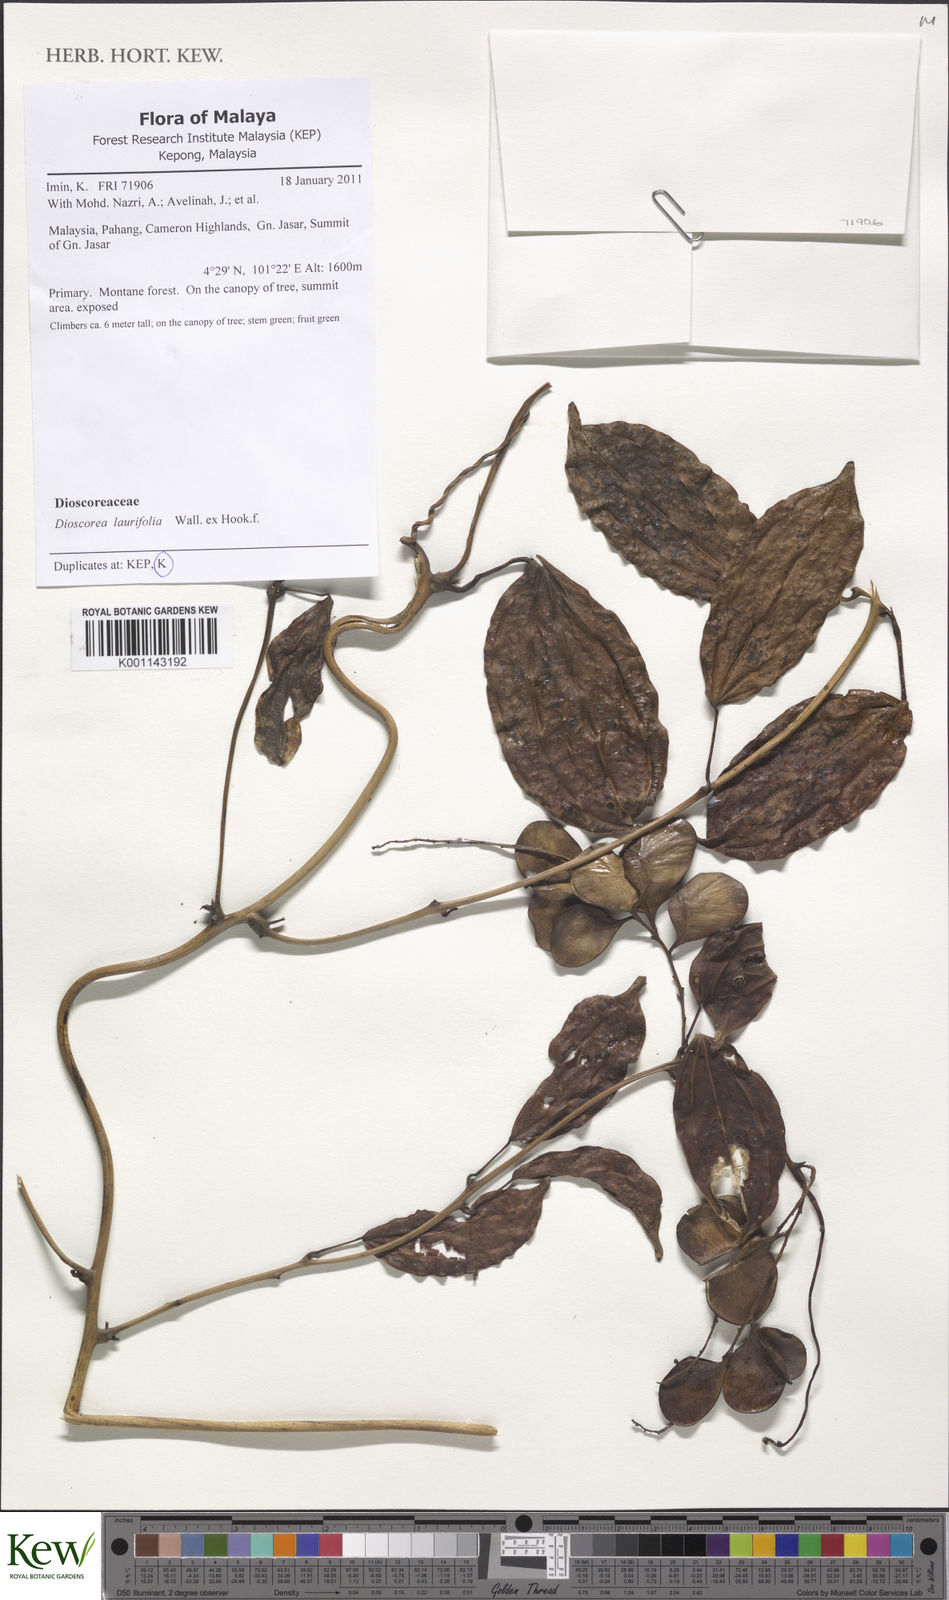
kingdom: Plantae
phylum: Tracheophyta
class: Liliopsida
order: Dioscoreales
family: Dioscoreaceae
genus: Dioscorea
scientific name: Dioscorea laurifolia
